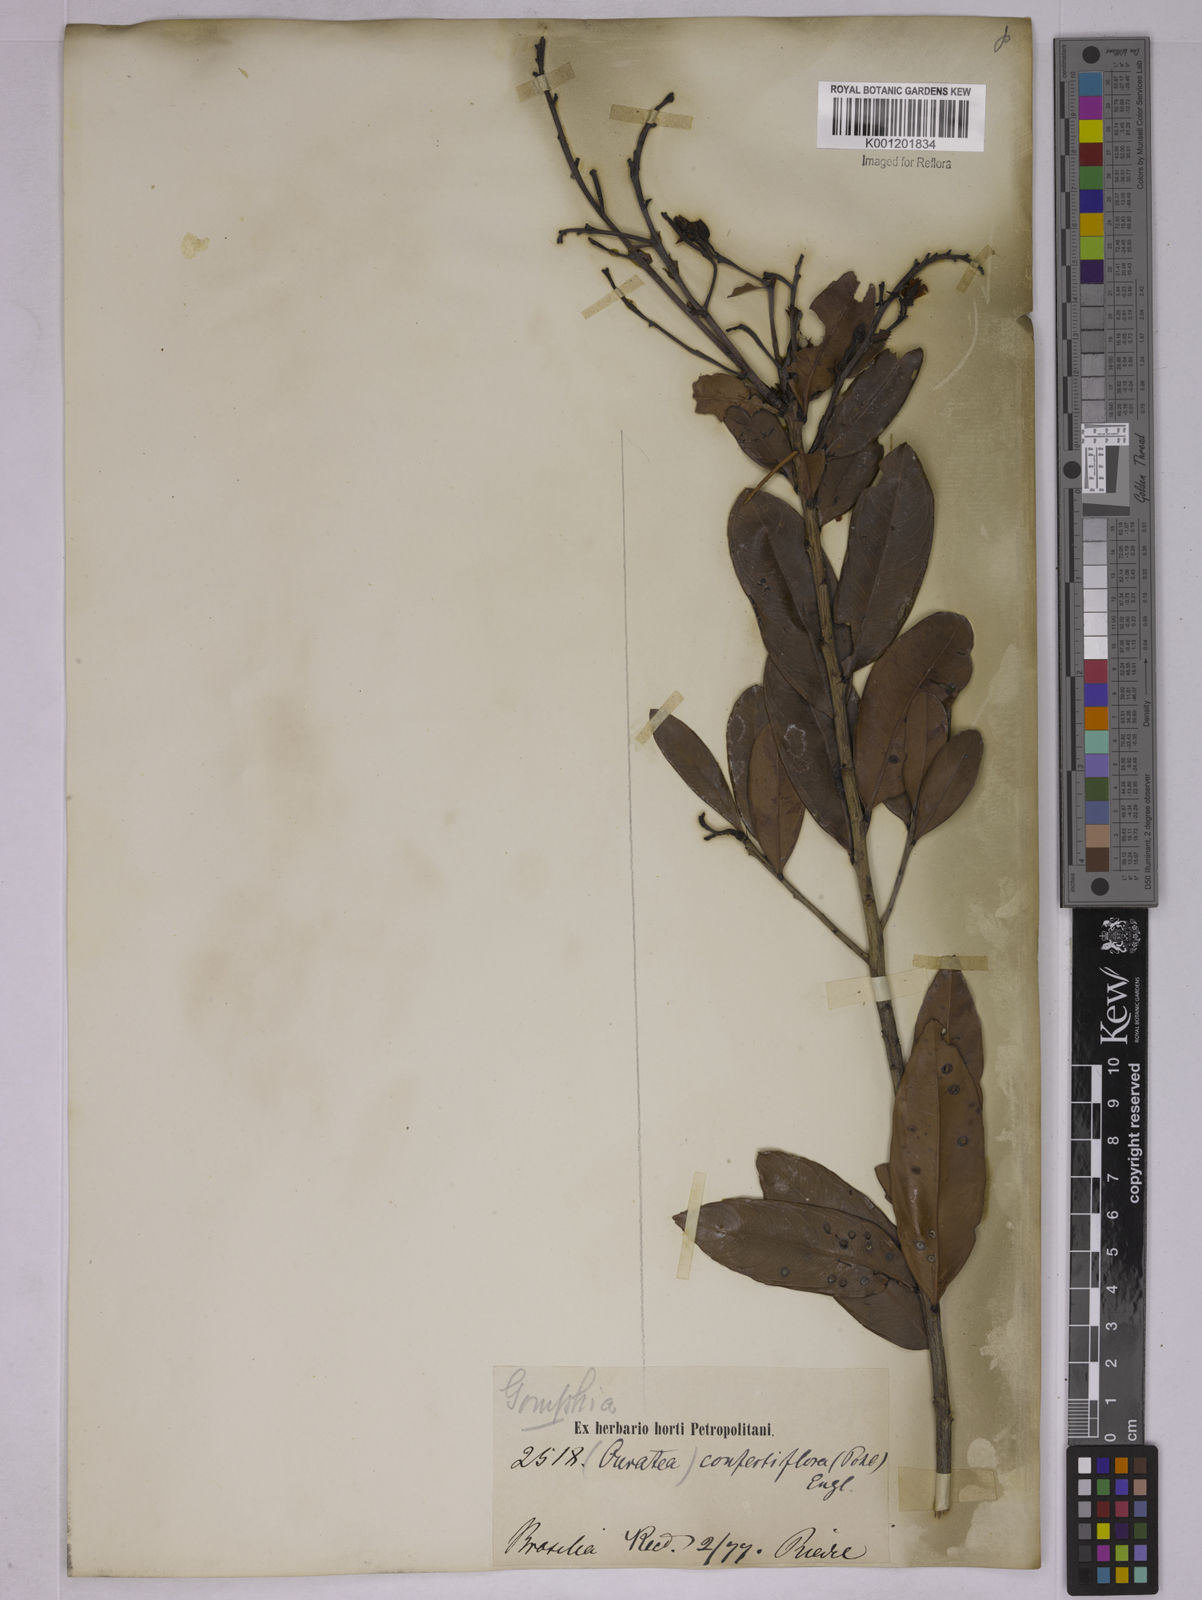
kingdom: Plantae
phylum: Tracheophyta
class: Magnoliopsida
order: Malpighiales
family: Ochnaceae
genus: Ouratea
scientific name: Ouratea confertiflora
